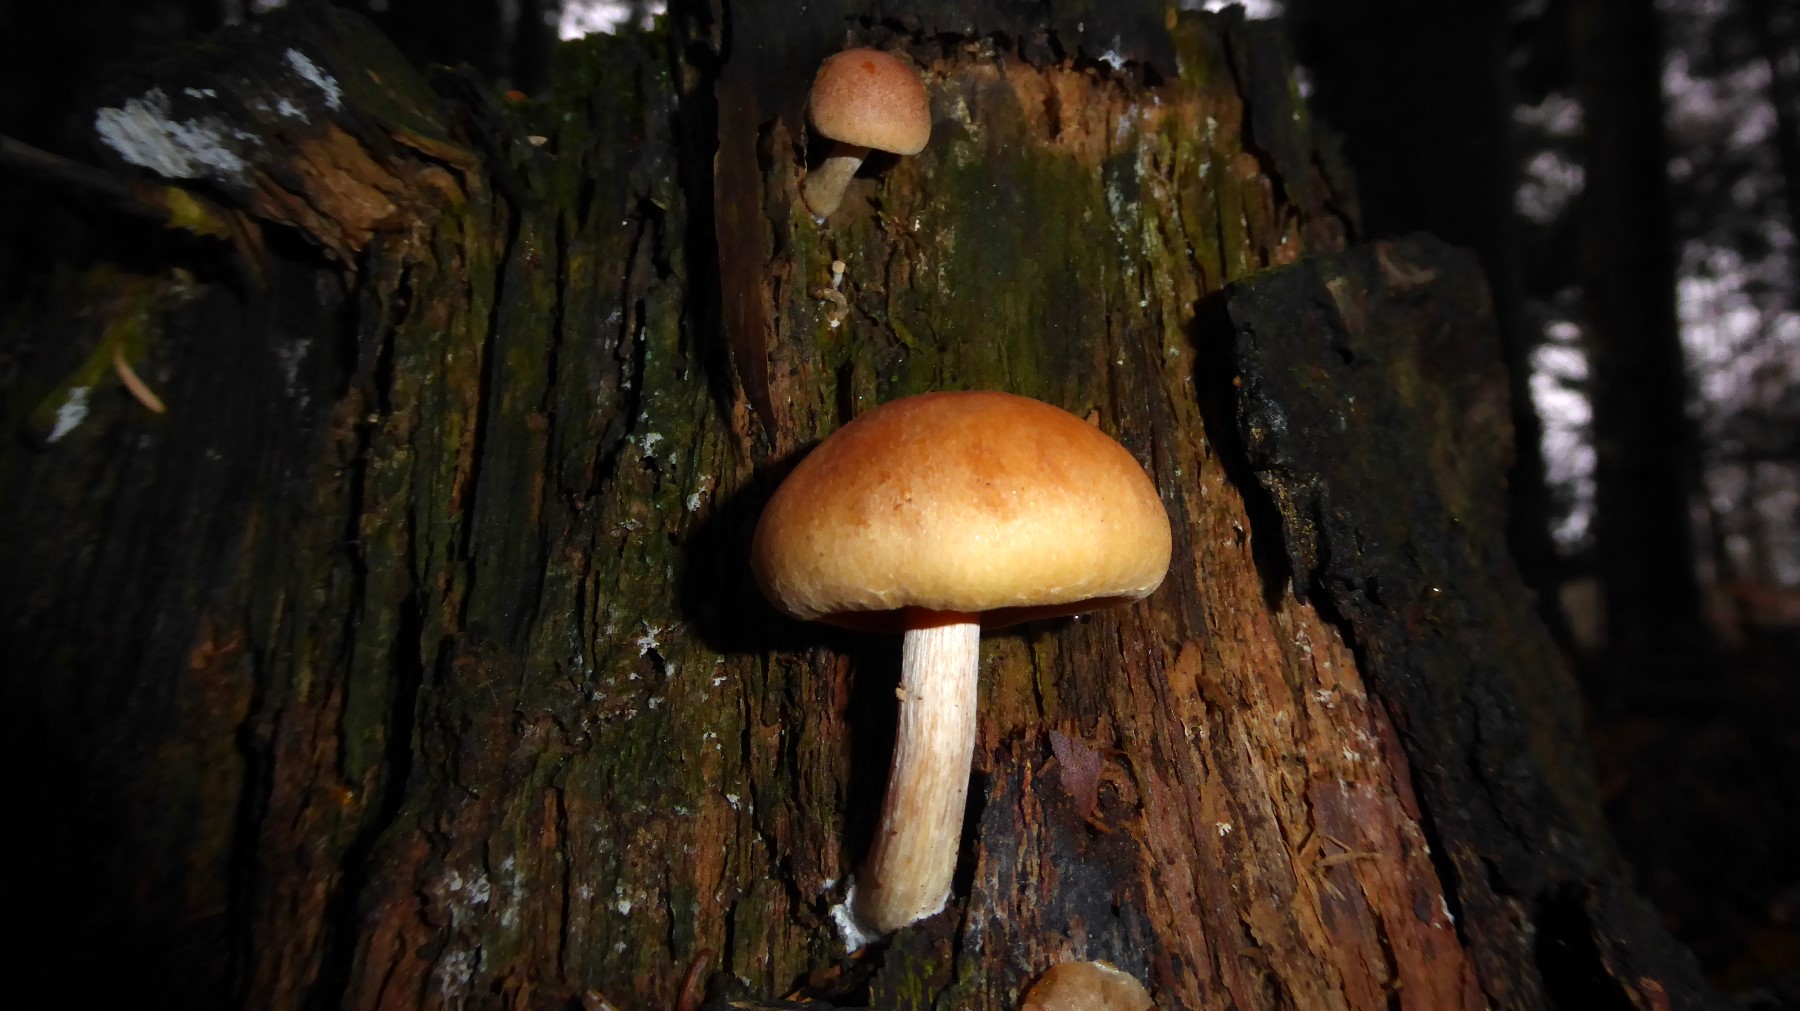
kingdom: Fungi
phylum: Basidiomycota
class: Agaricomycetes
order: Agaricales
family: Hymenogastraceae
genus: Gymnopilus
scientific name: Gymnopilus penetrans
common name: plettet flammehat
